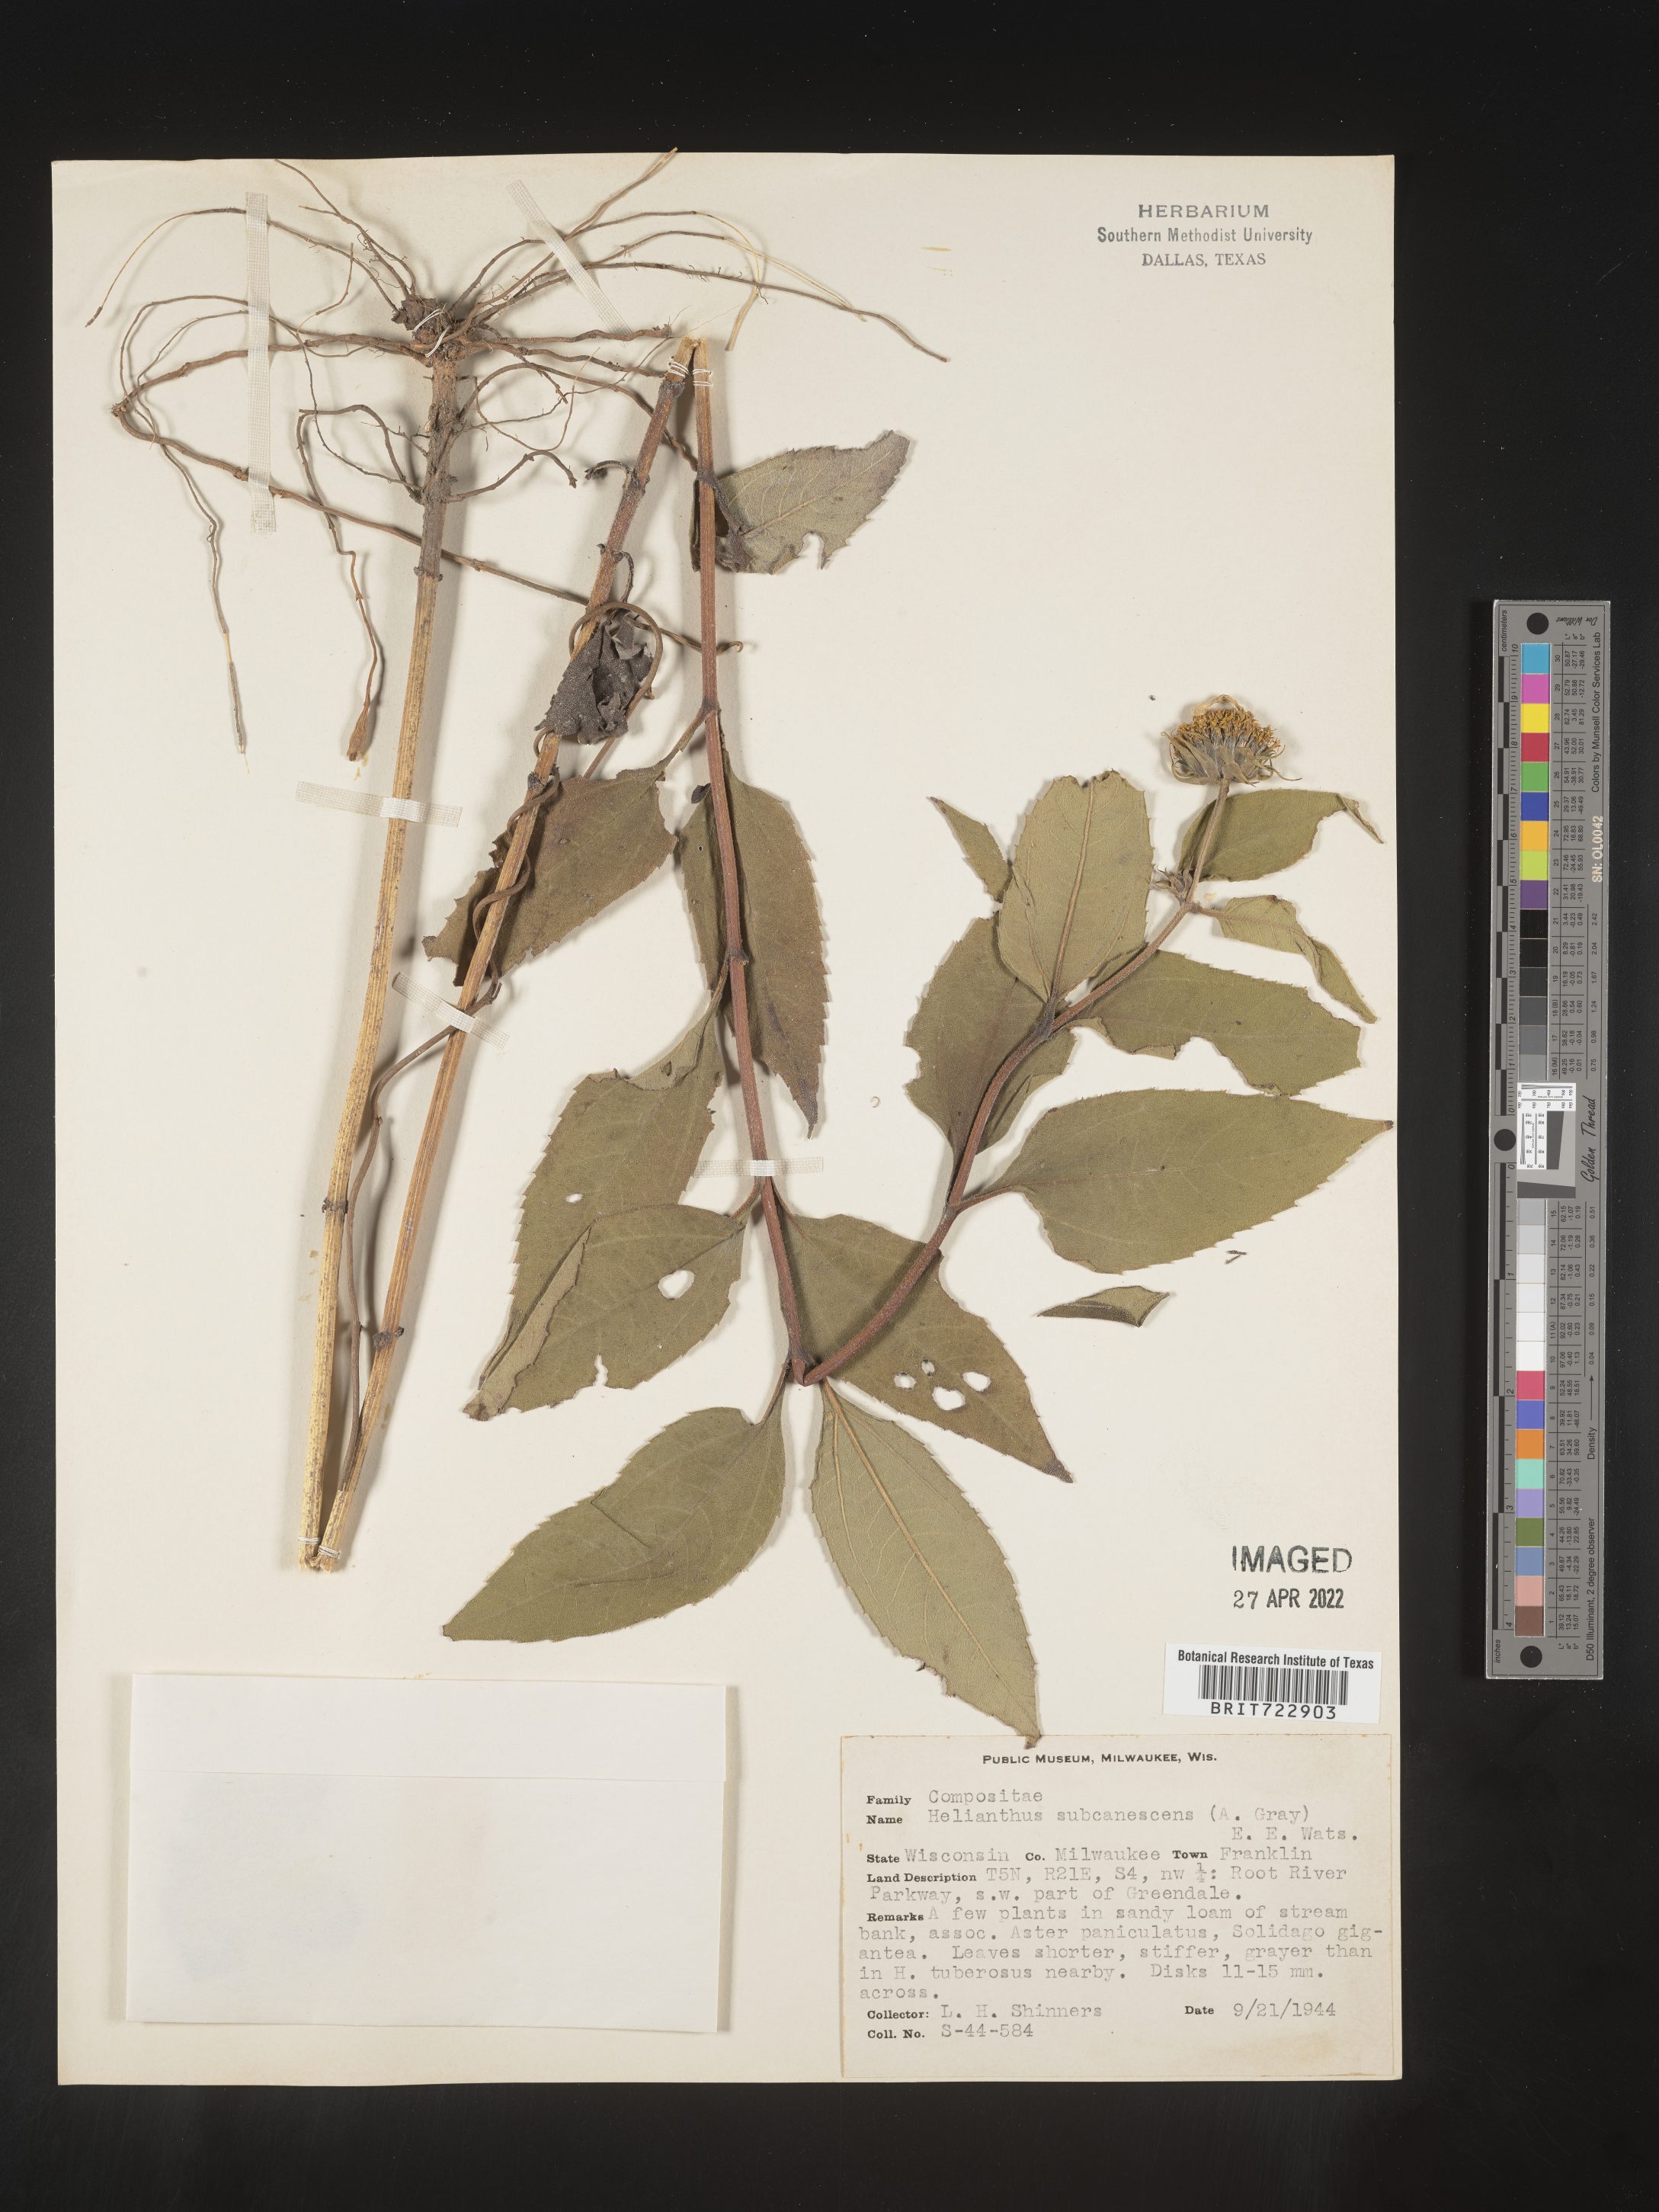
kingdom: Plantae
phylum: Tracheophyta
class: Magnoliopsida
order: Asterales
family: Asteraceae
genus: Helianthus
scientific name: Helianthus
